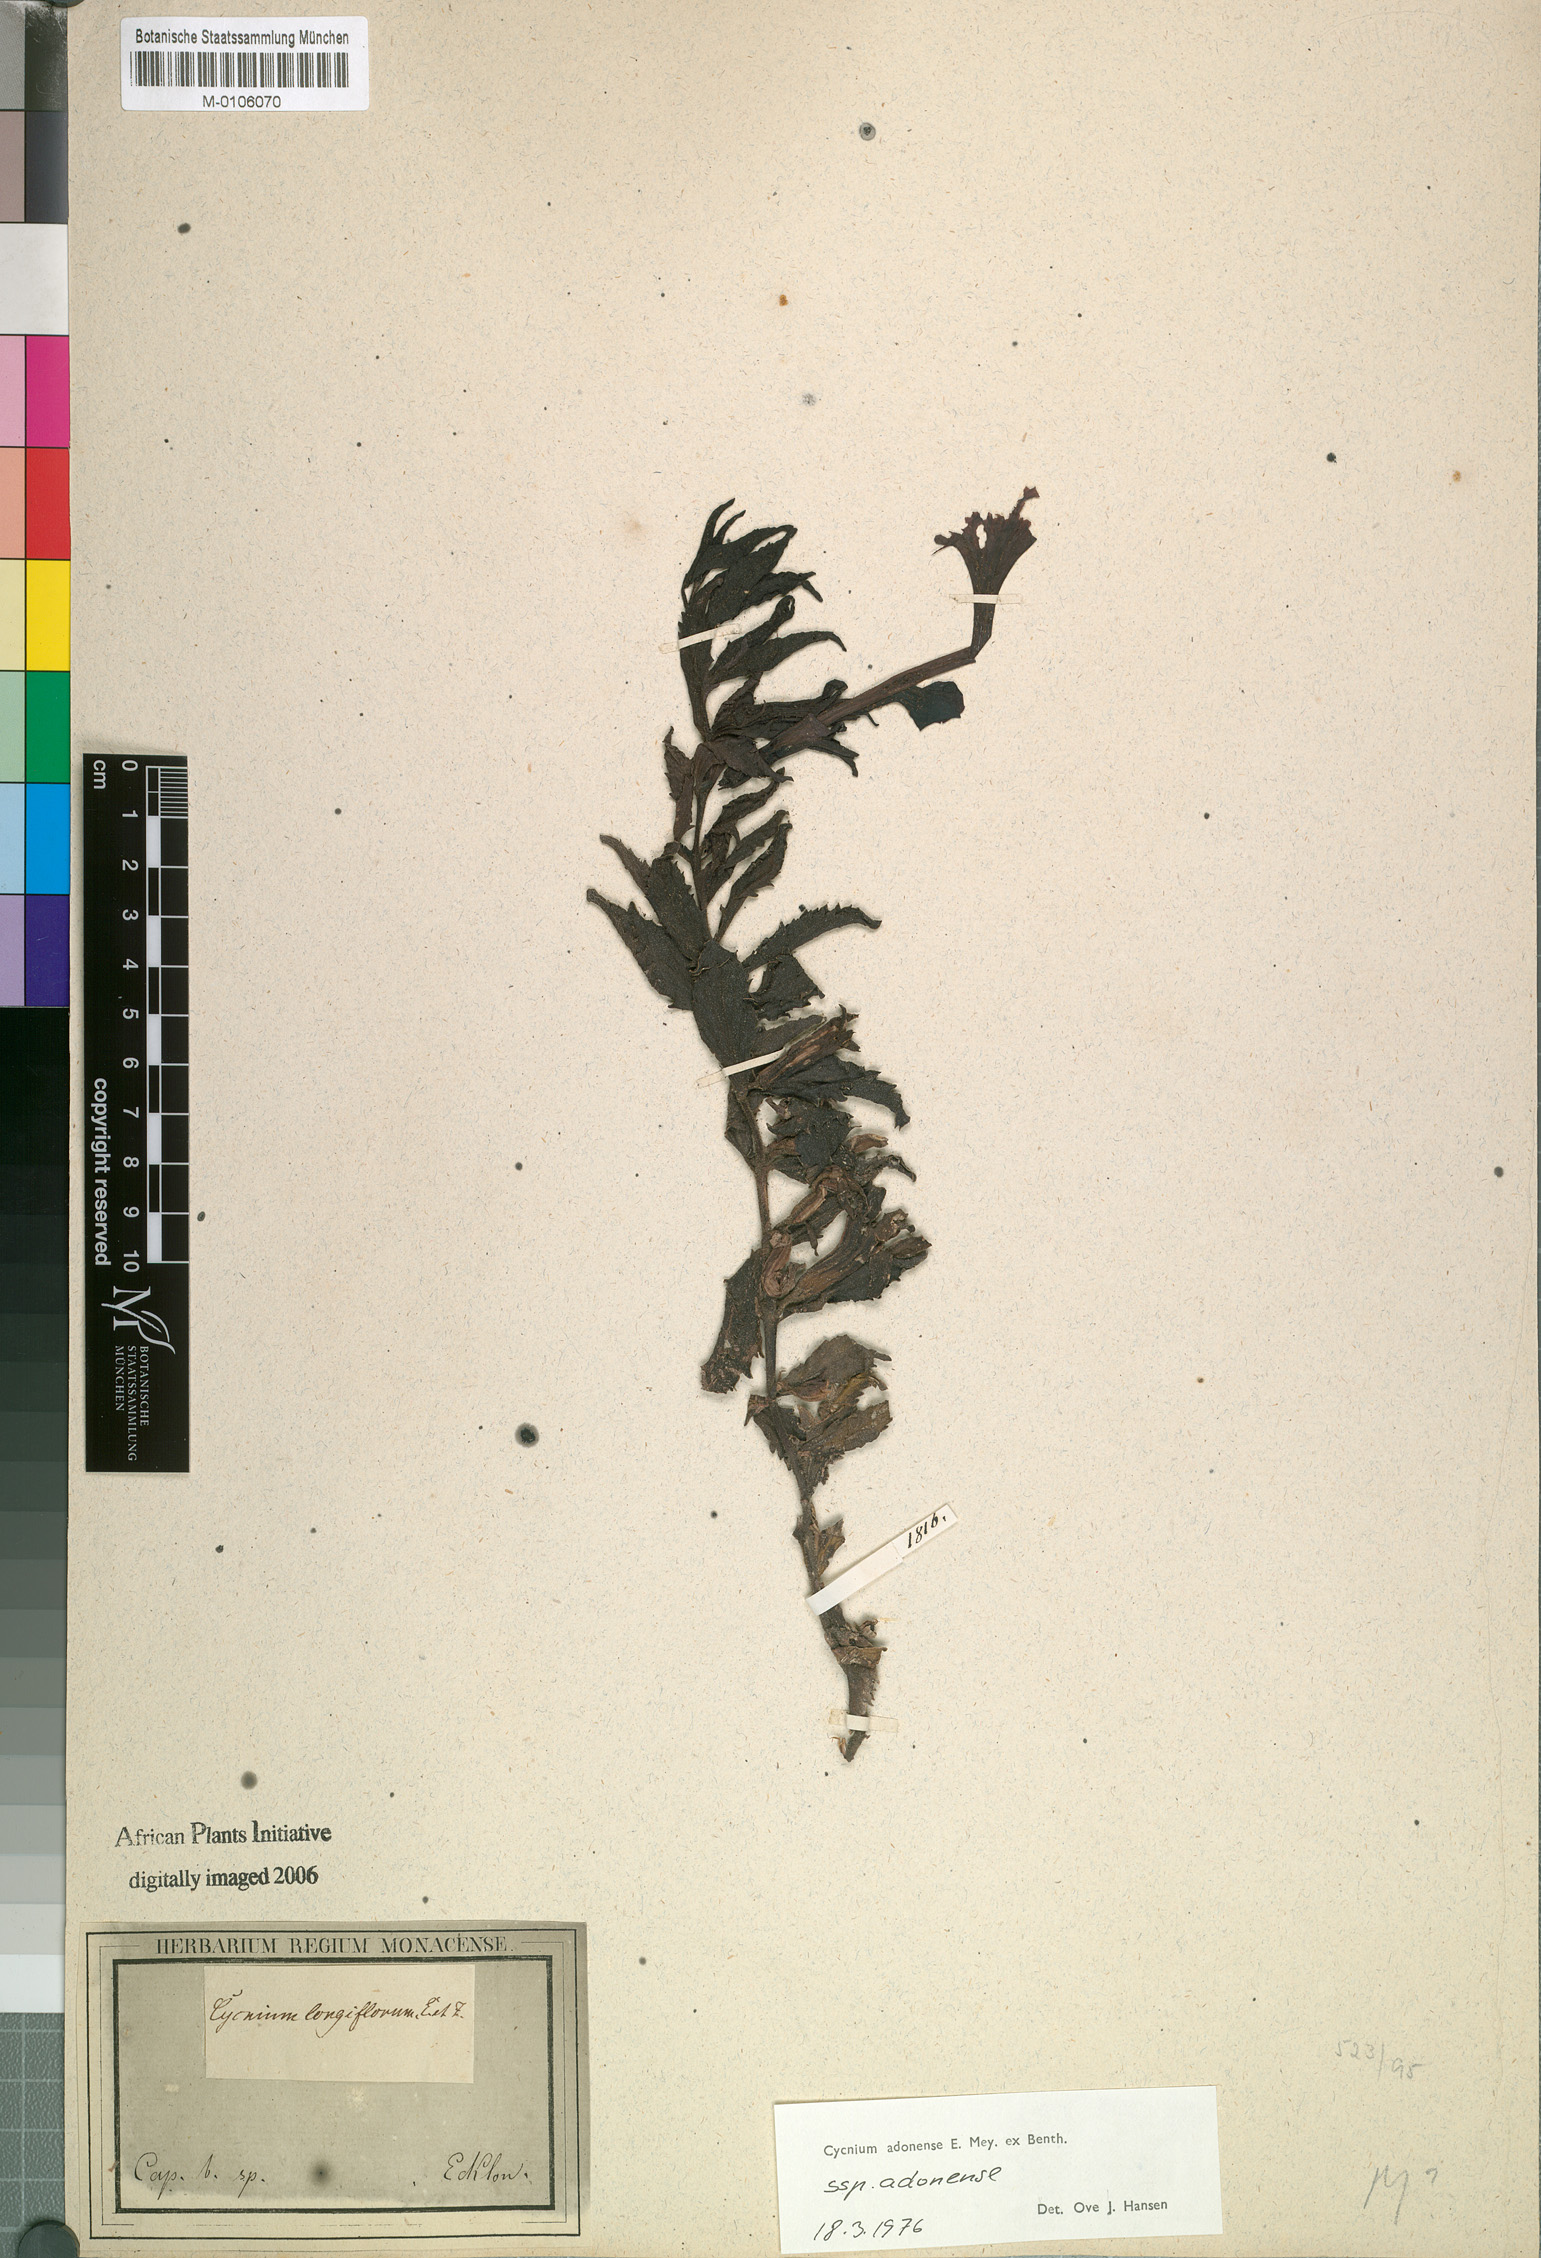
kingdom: Plantae
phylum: Tracheophyta
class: Magnoliopsida
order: Lamiales
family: Orobanchaceae
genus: Cycnium
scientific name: Cycnium adonense
